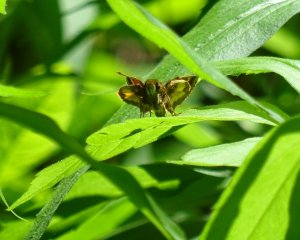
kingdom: Animalia
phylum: Arthropoda
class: Insecta
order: Lepidoptera
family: Hesperiidae
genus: Lon
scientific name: Lon hobomok
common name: Hobomok Skipper
